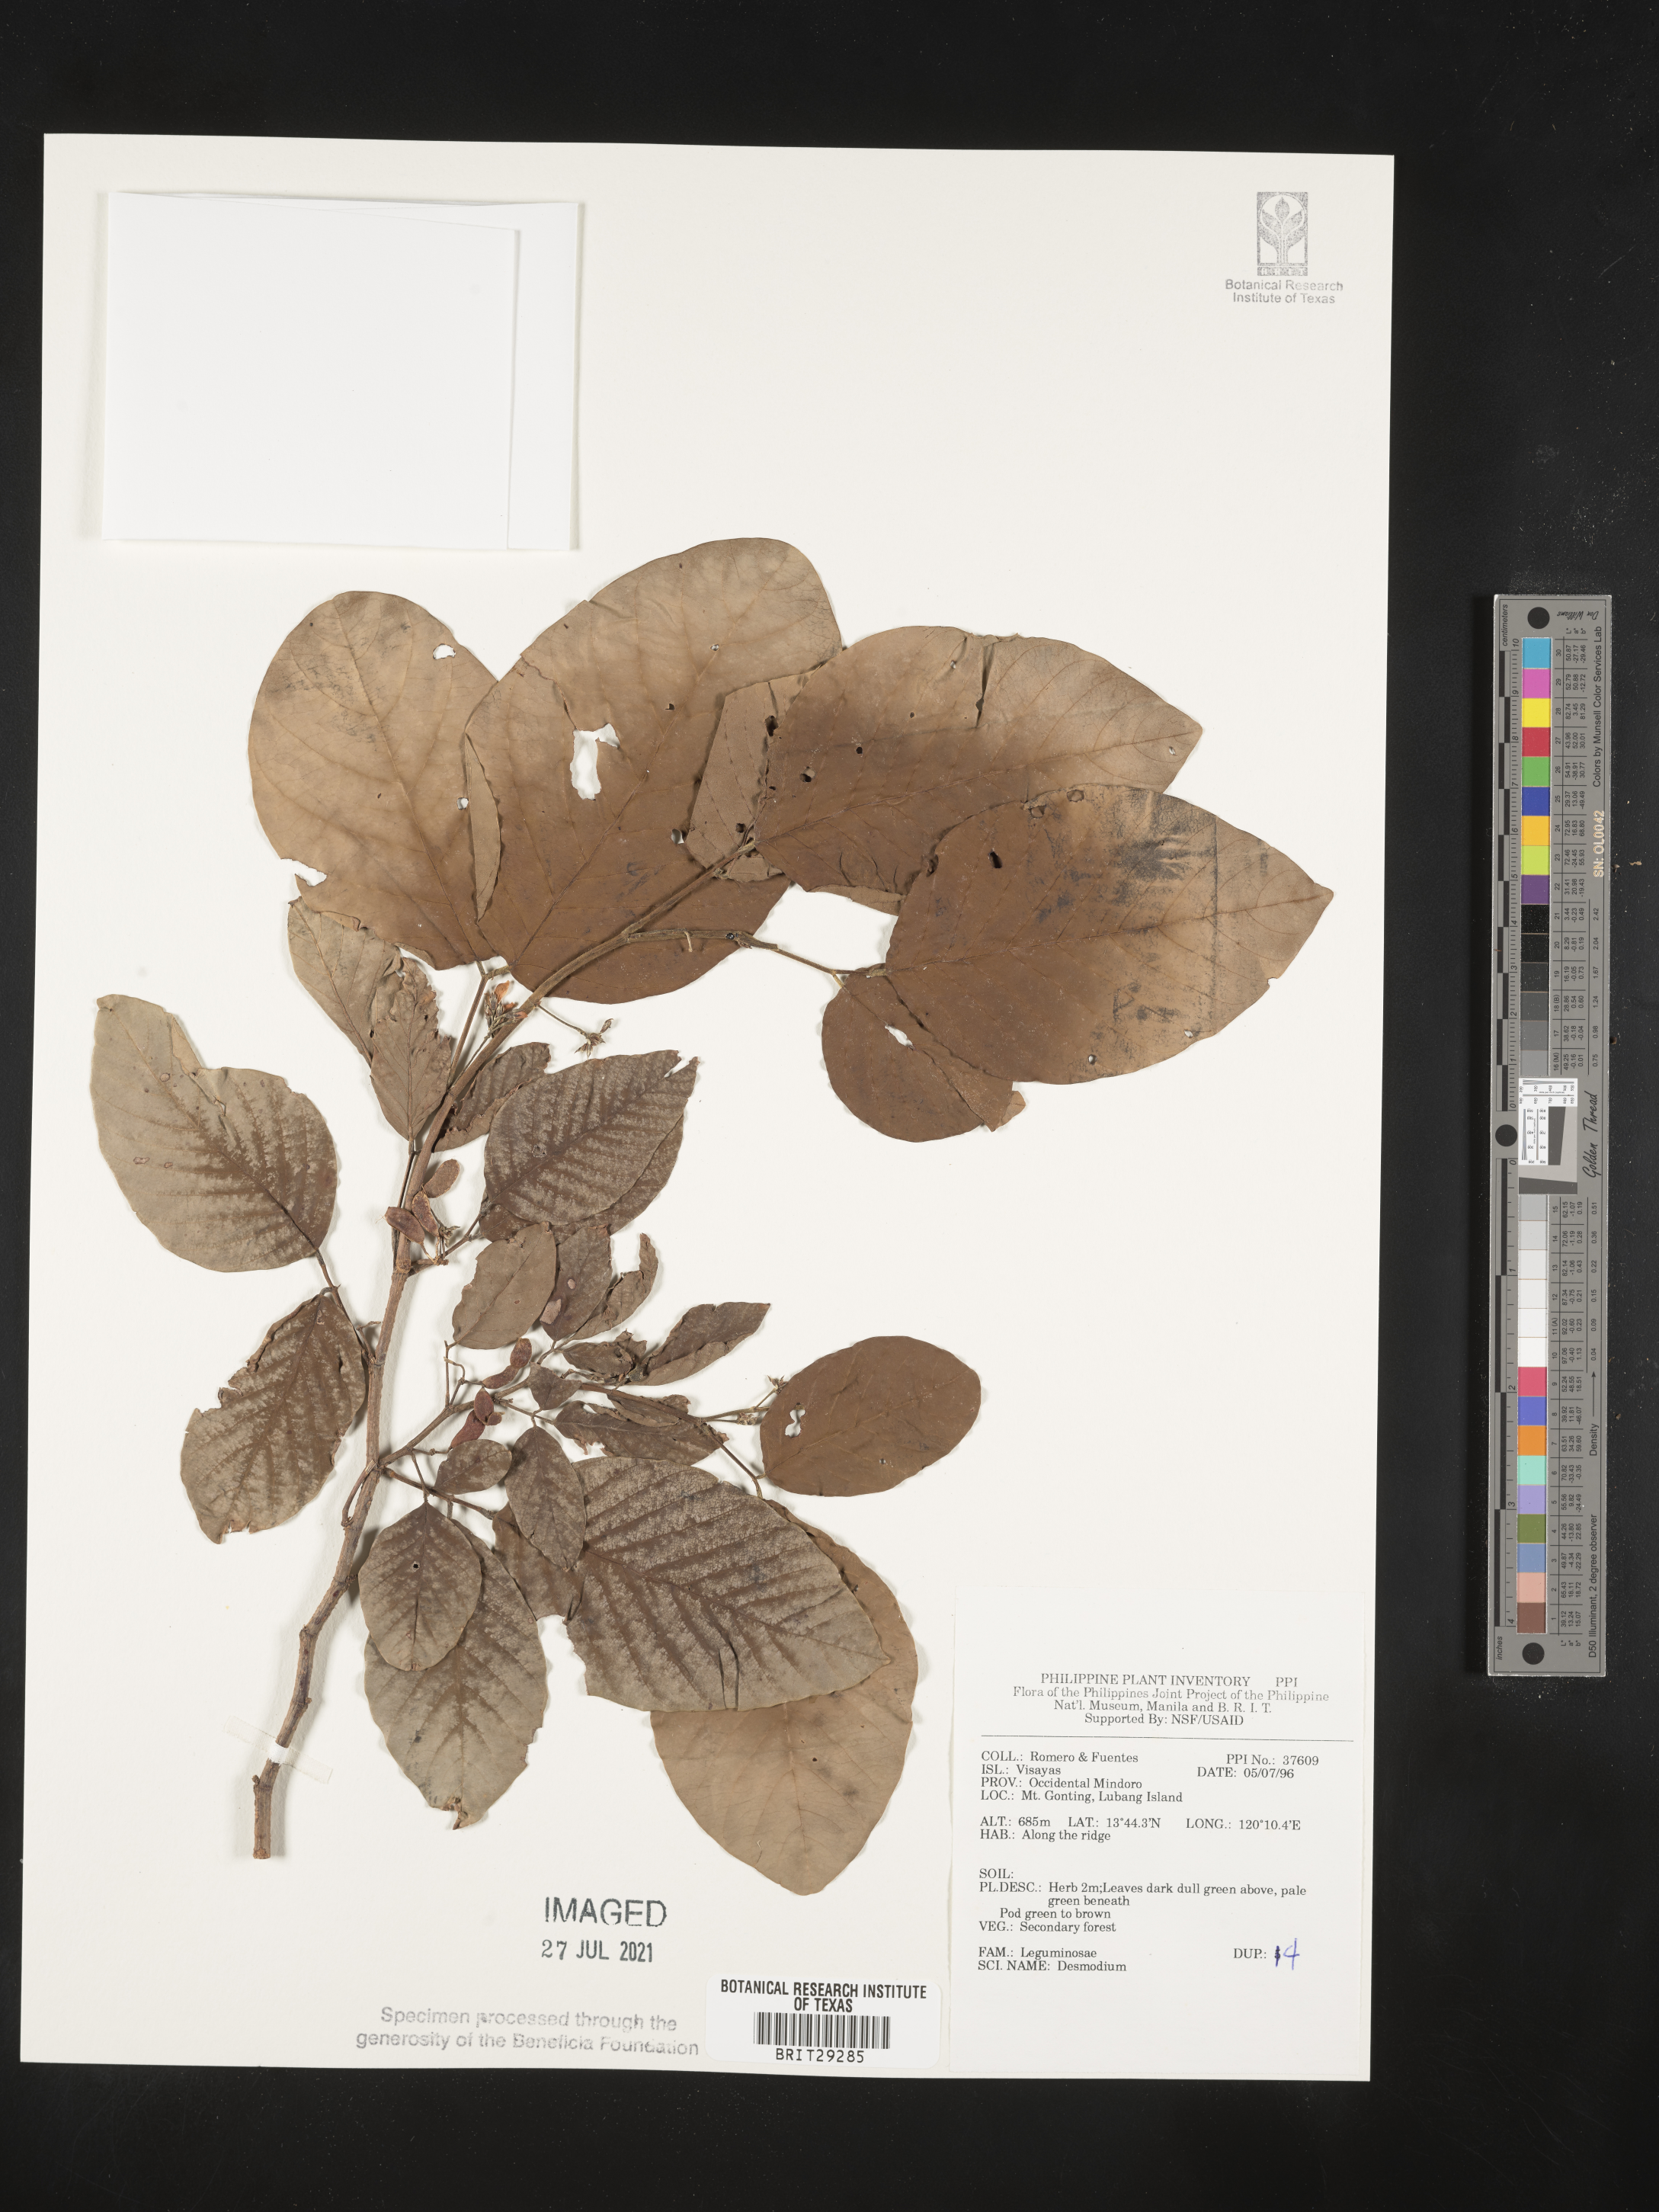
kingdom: Plantae
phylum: Tracheophyta
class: Magnoliopsida
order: Fabales
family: Fabaceae
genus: Desmodium
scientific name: Desmodium
